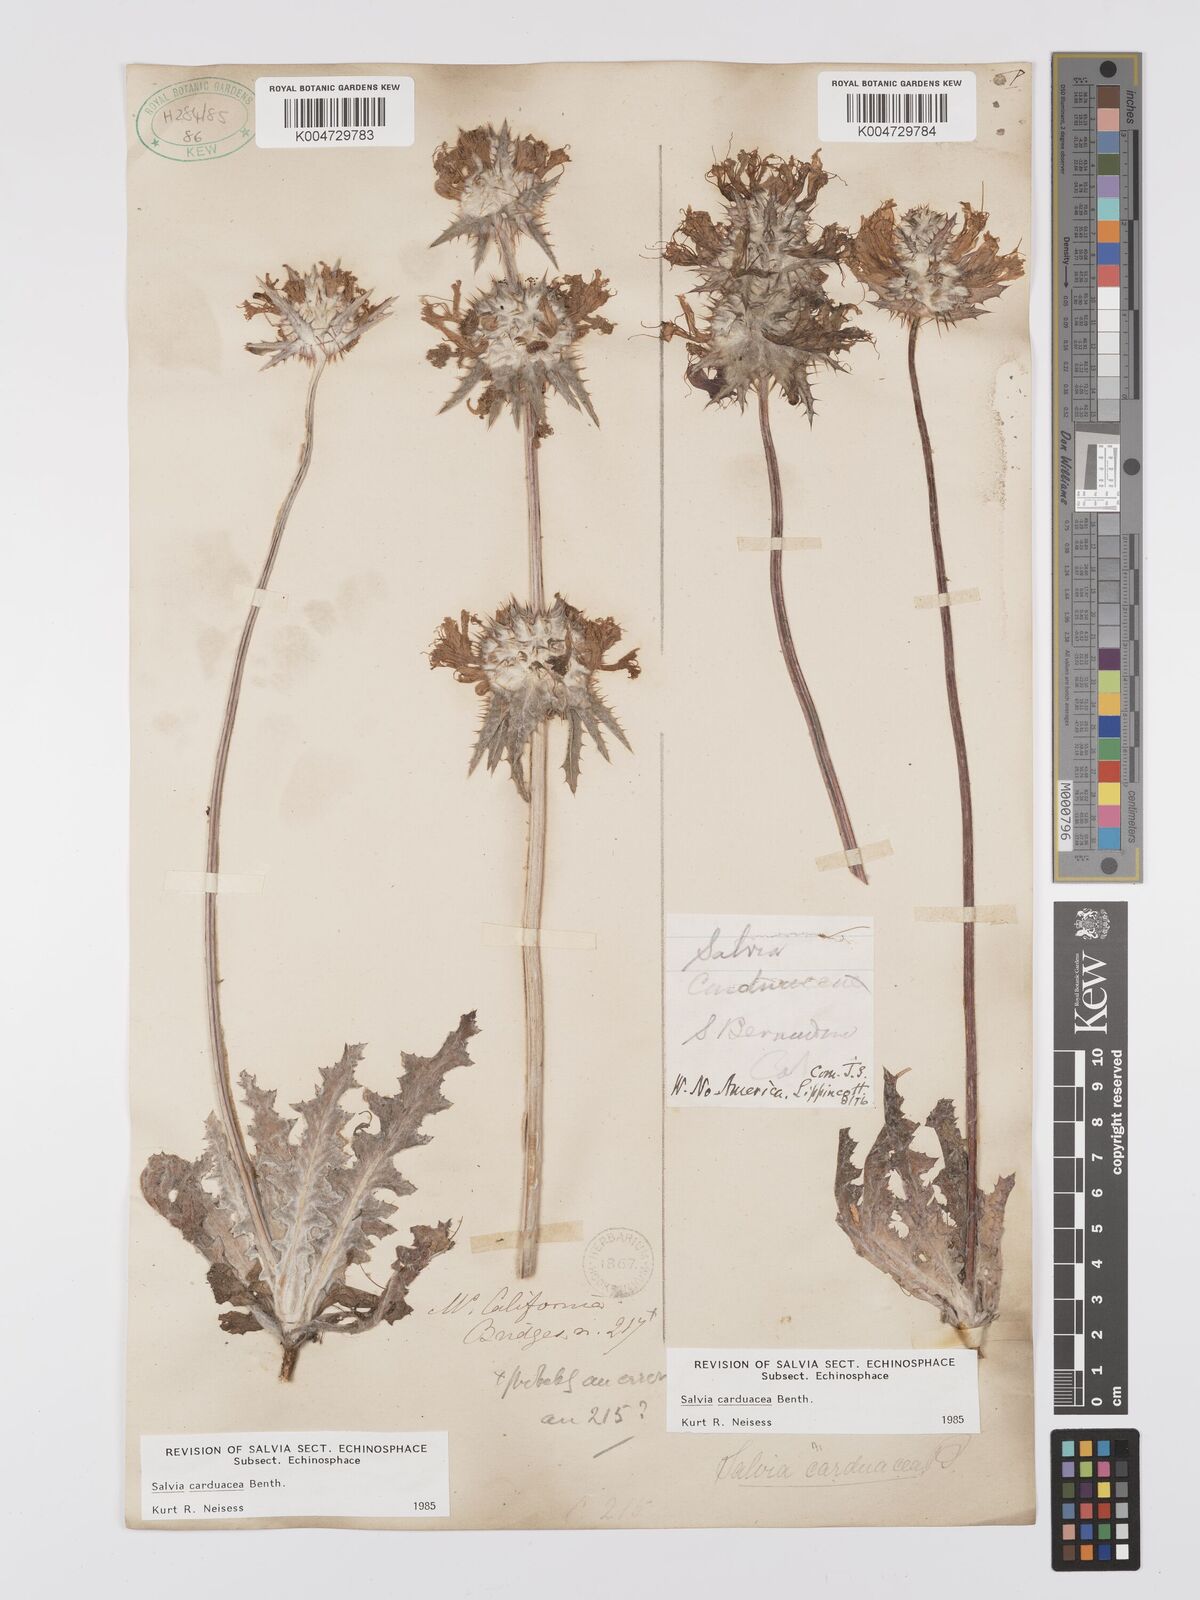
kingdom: Plantae
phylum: Tracheophyta
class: Magnoliopsida
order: Lamiales
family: Lamiaceae
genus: Salvia
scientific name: Salvia carduacea
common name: Thistle sage
